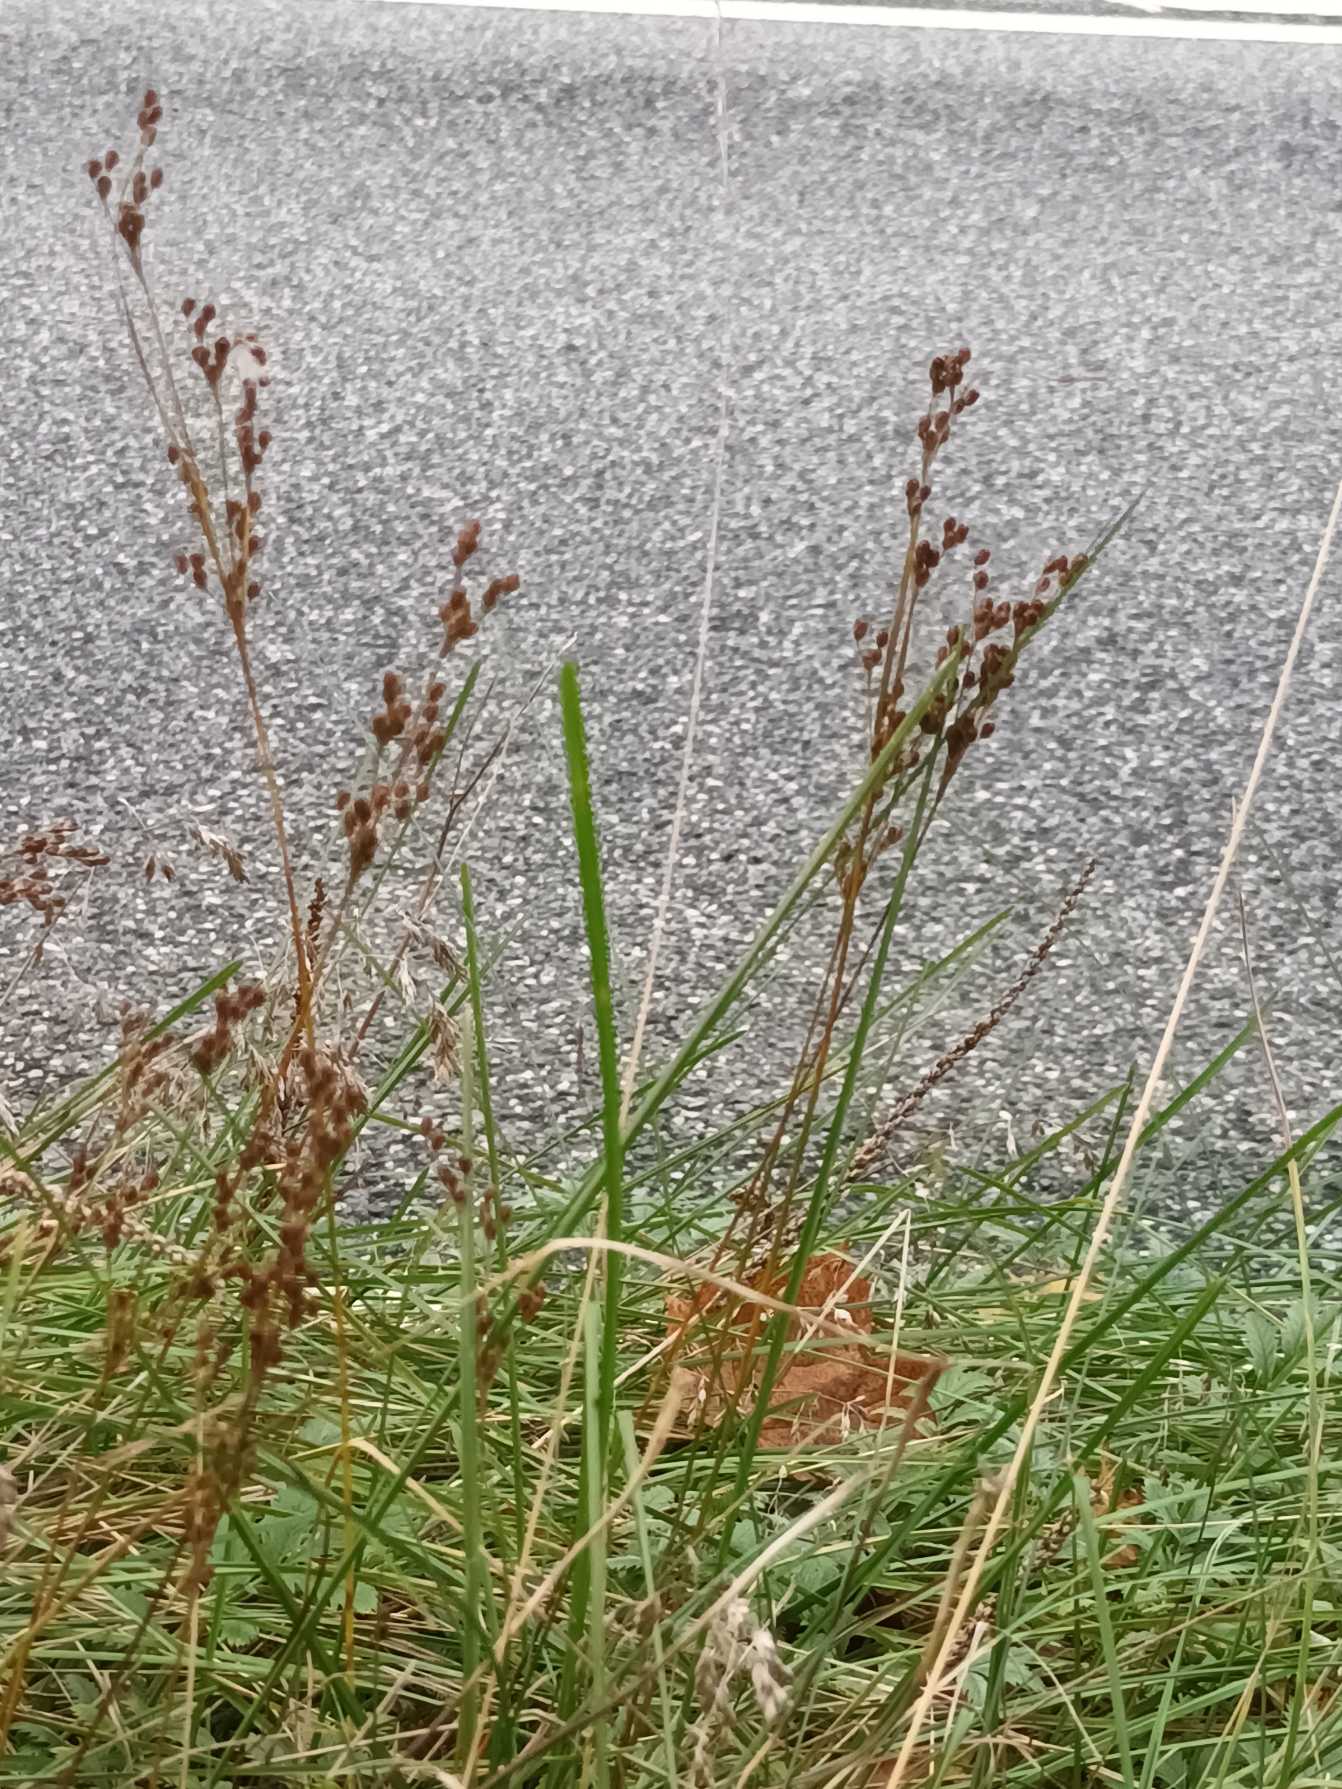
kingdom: Plantae
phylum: Tracheophyta
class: Liliopsida
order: Poales
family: Juncaceae
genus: Juncus
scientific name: Juncus compressus
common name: Fladstrået siv
